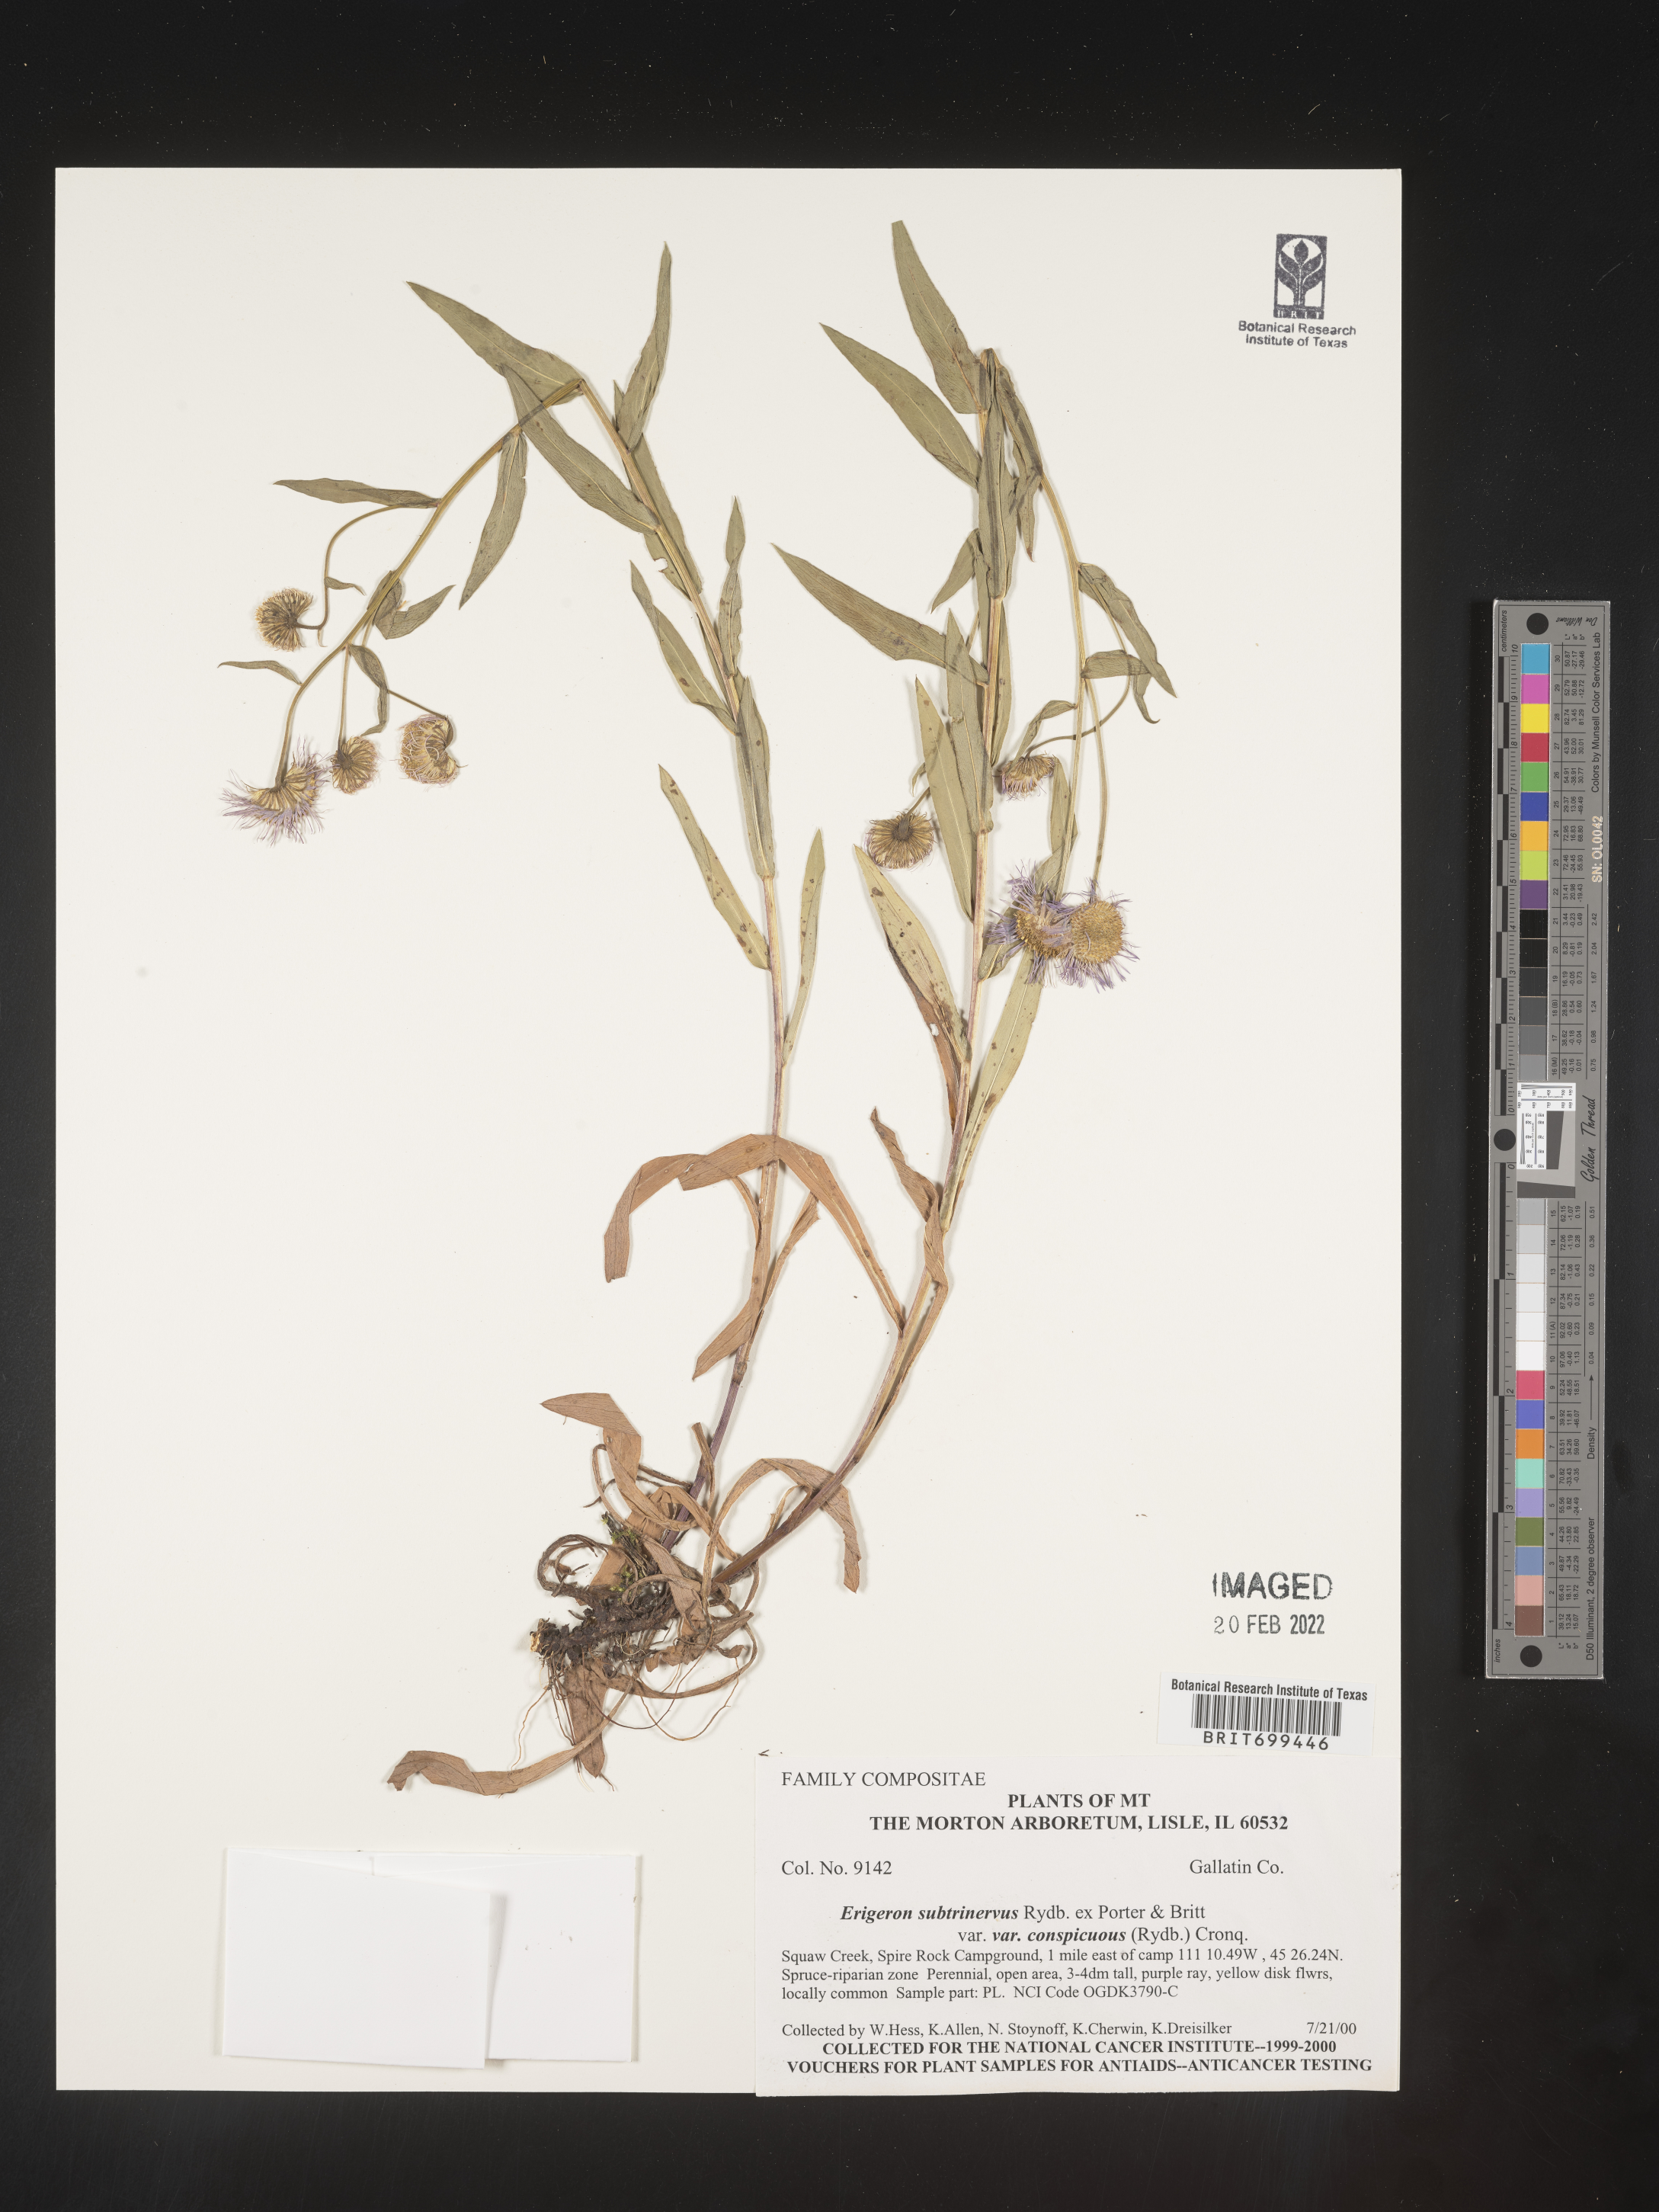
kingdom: Plantae
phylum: Tracheophyta
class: Magnoliopsida
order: Asterales
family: Asteraceae
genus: Erigeron
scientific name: Erigeron speciosus
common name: Aspen fleabane
